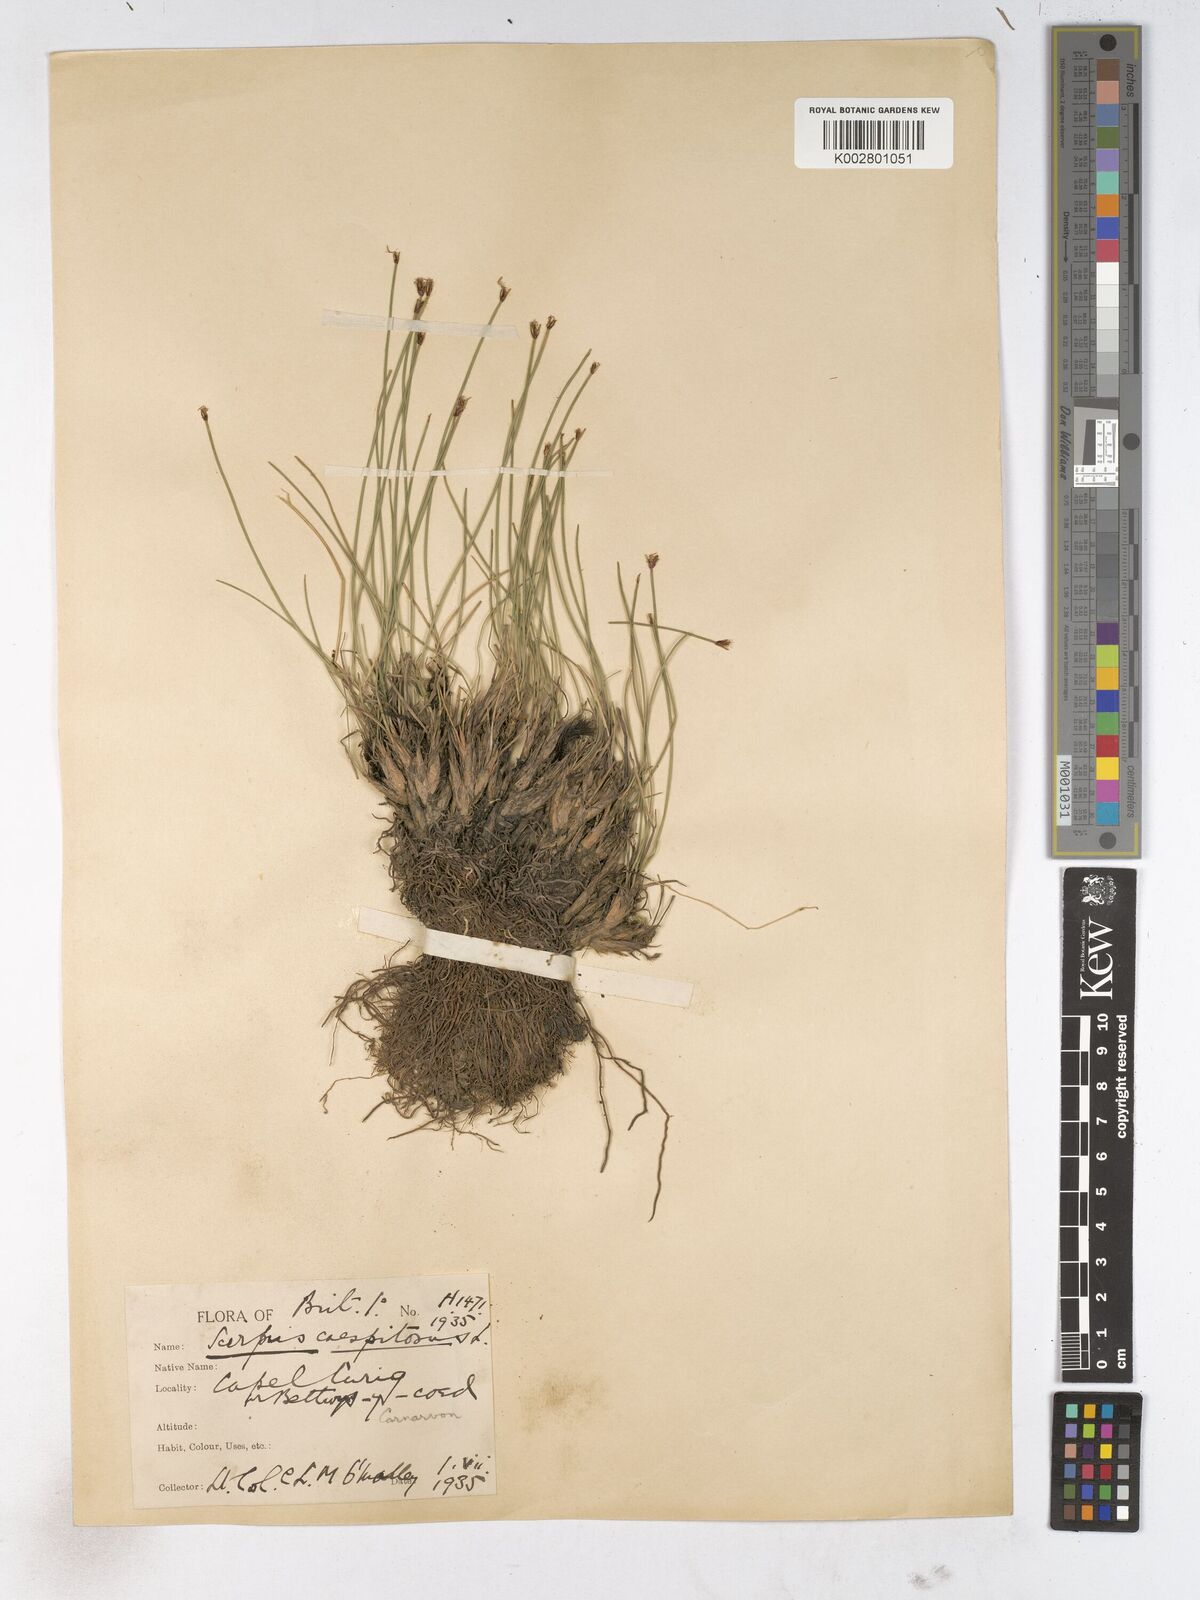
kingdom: Plantae
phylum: Tracheophyta
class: Liliopsida
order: Poales
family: Cyperaceae
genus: Trichophorum
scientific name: Trichophorum cespitosum
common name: Cespitose bulrush
